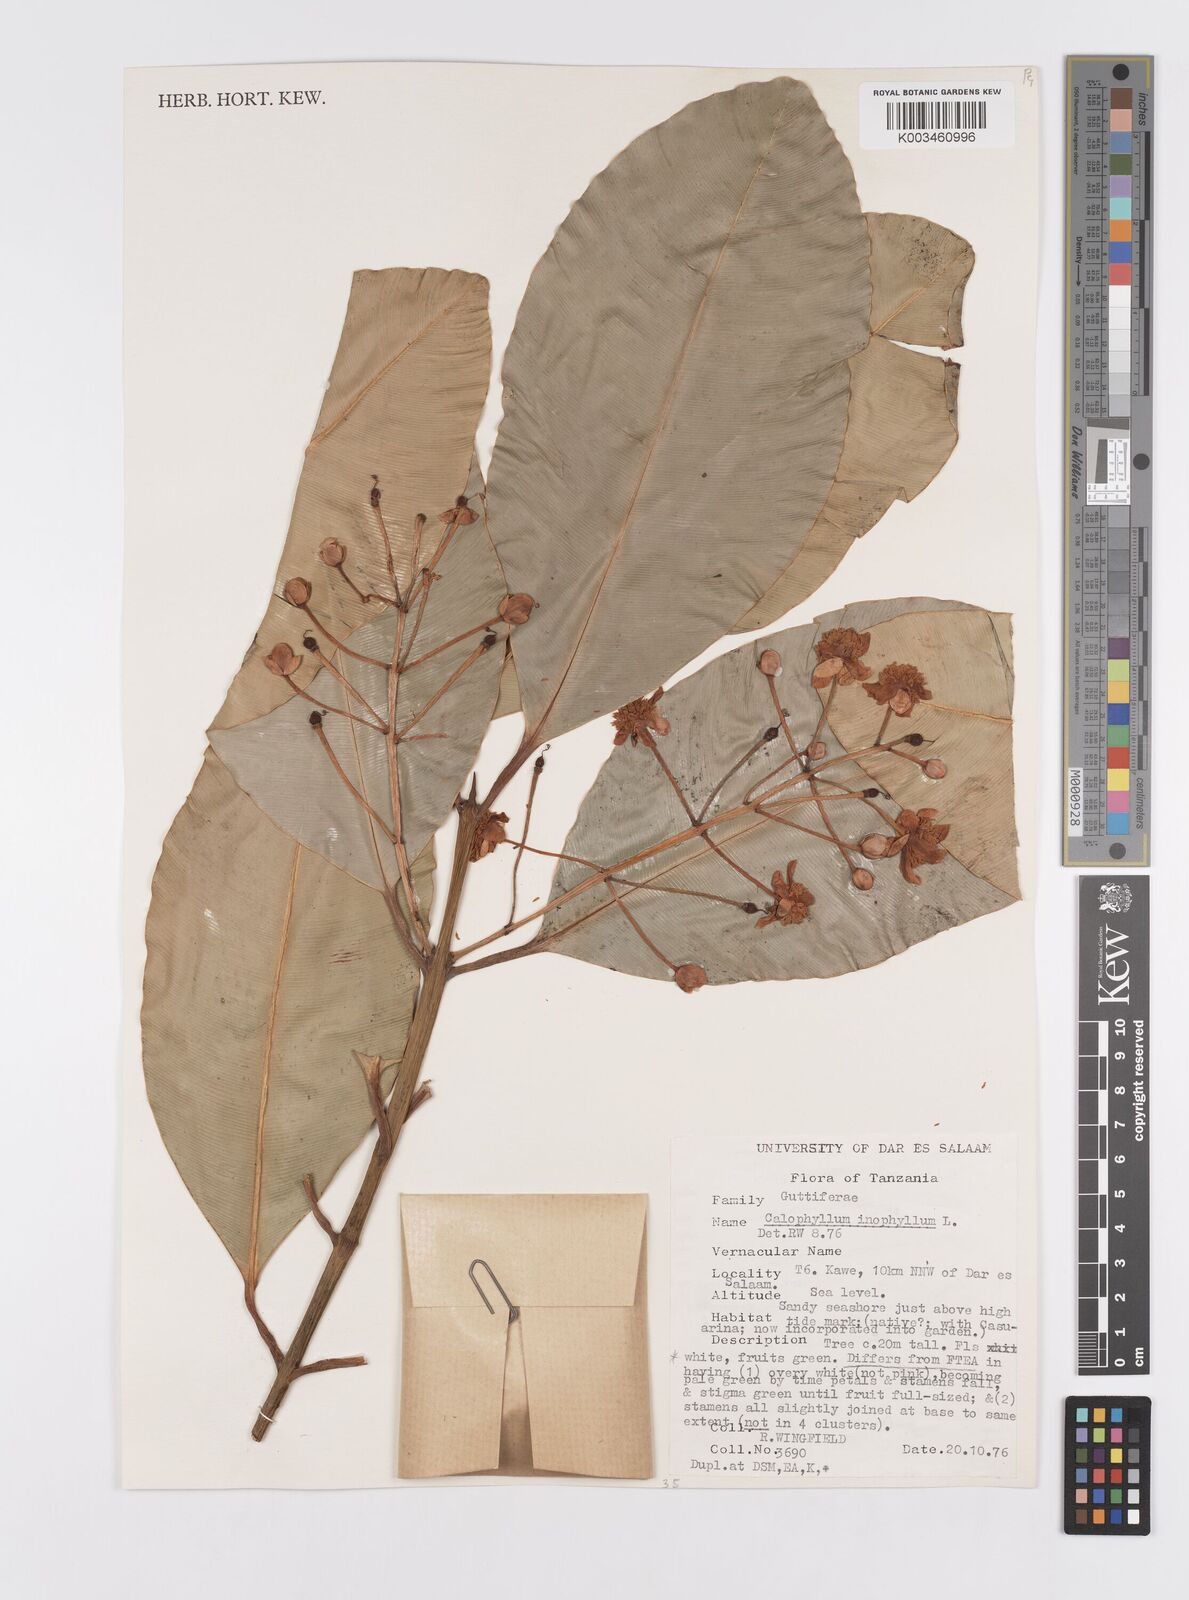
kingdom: Plantae
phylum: Tracheophyta
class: Magnoliopsida
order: Malpighiales
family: Calophyllaceae
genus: Calophyllum
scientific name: Calophyllum inophyllum
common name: Alexandrian laurel
